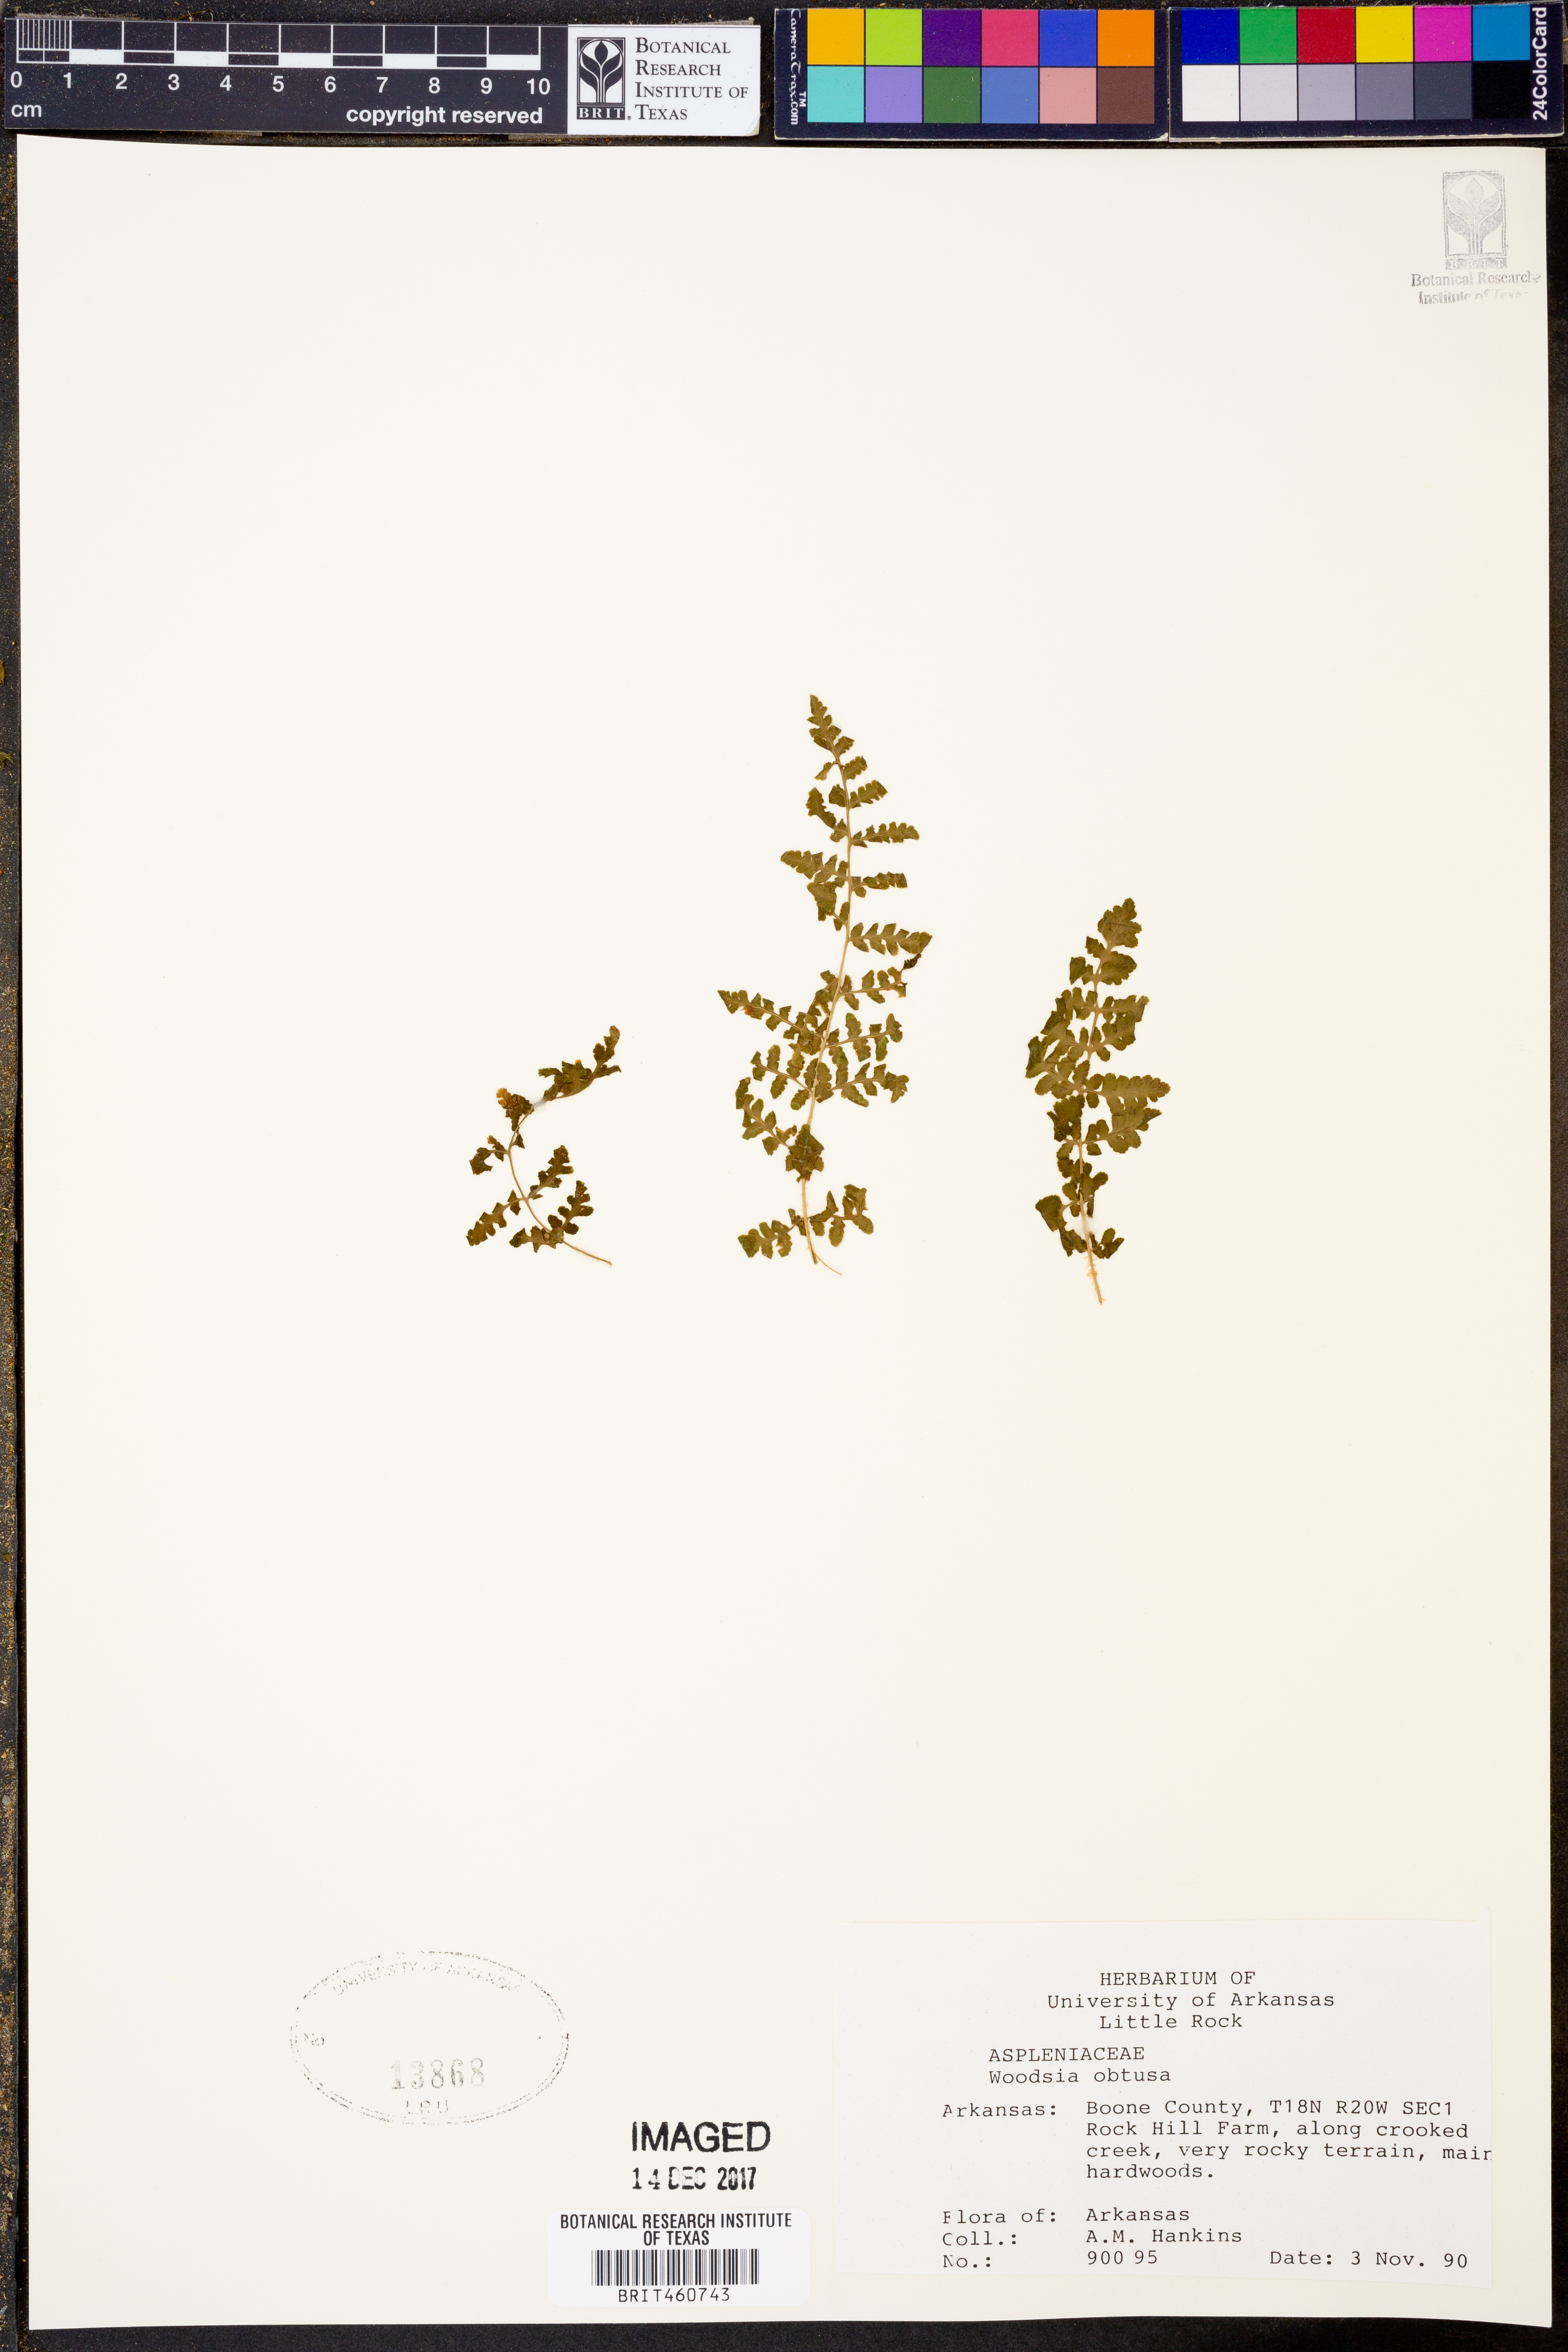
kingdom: Plantae
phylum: Tracheophyta
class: Polypodiopsida
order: Polypodiales
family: Woodsiaceae
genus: Physematium
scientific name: Physematium obtusum
